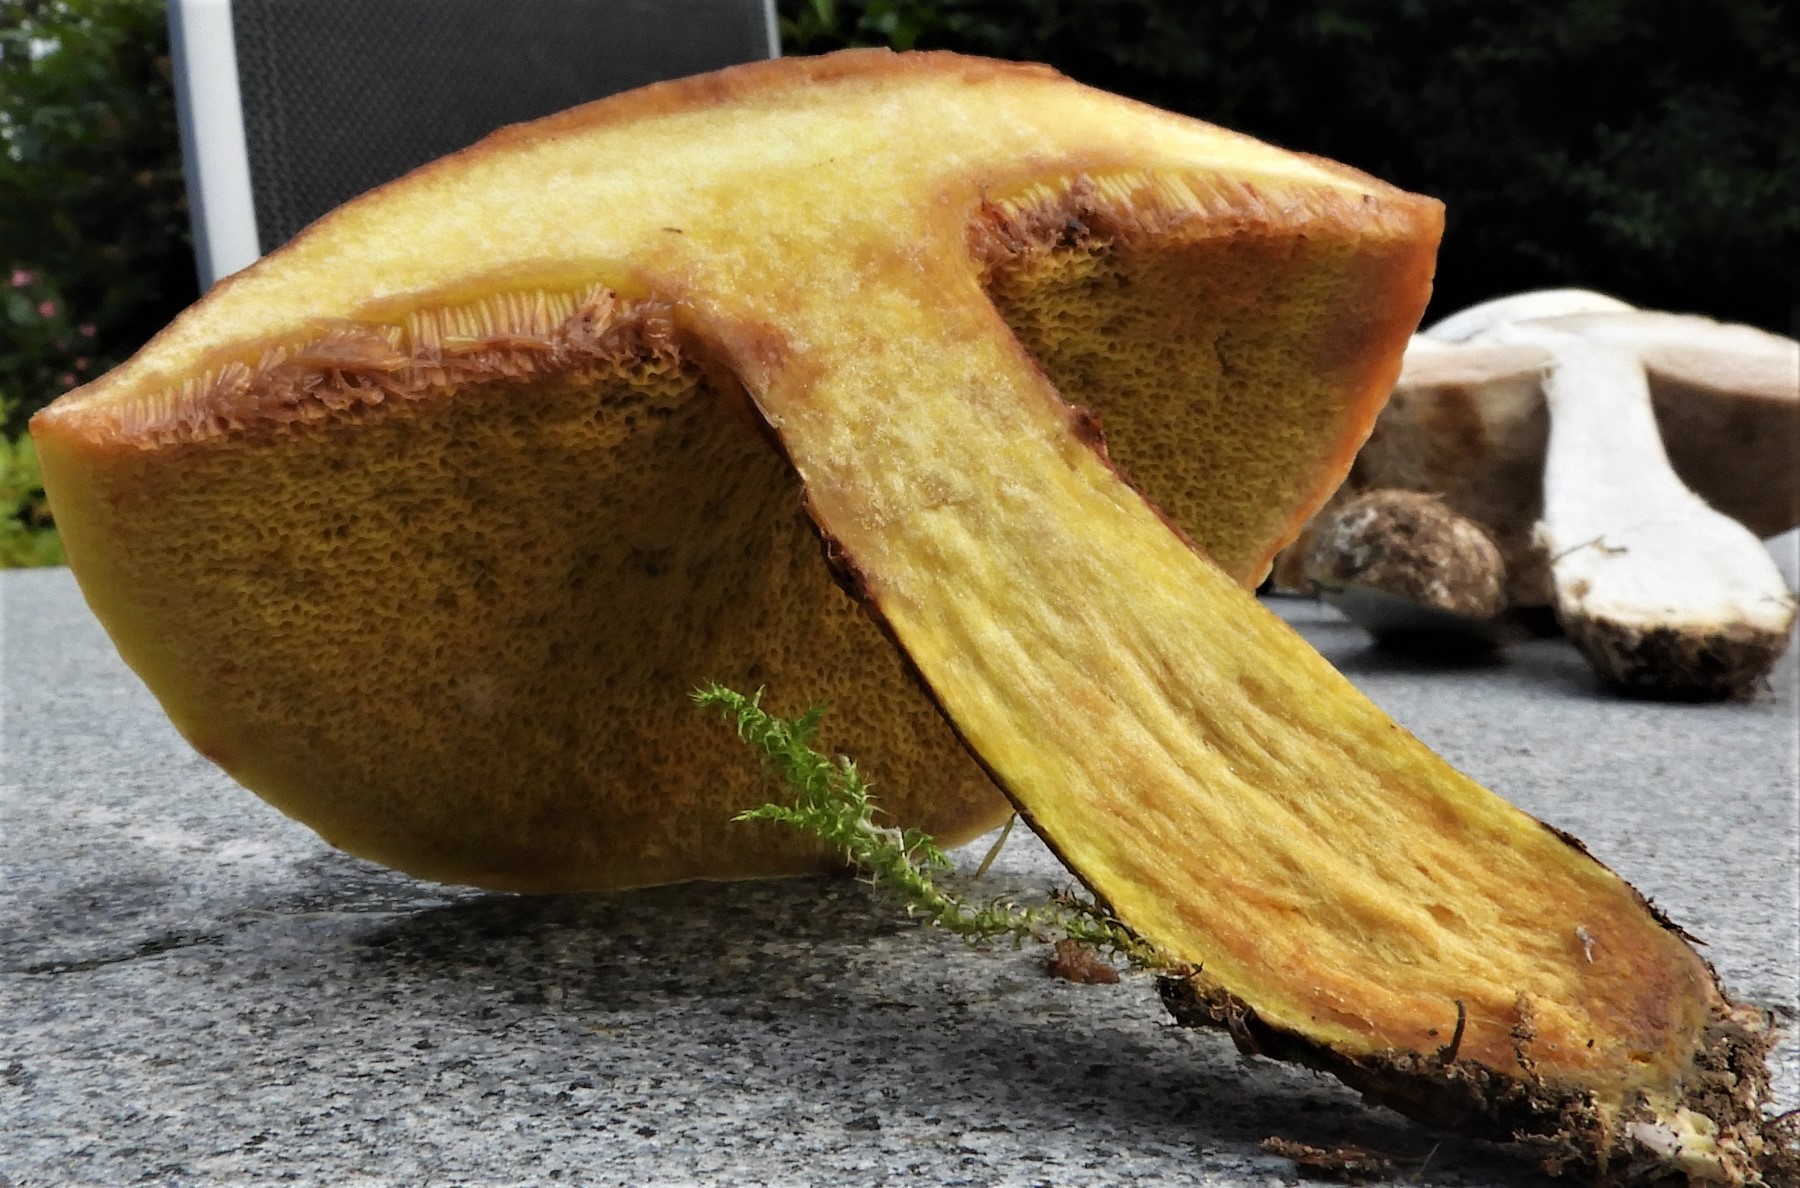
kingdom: Fungi
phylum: Basidiomycota
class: Agaricomycetes
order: Boletales
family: Suillaceae
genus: Suillus
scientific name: Suillus grevillei
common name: lærke-slimrørhat
